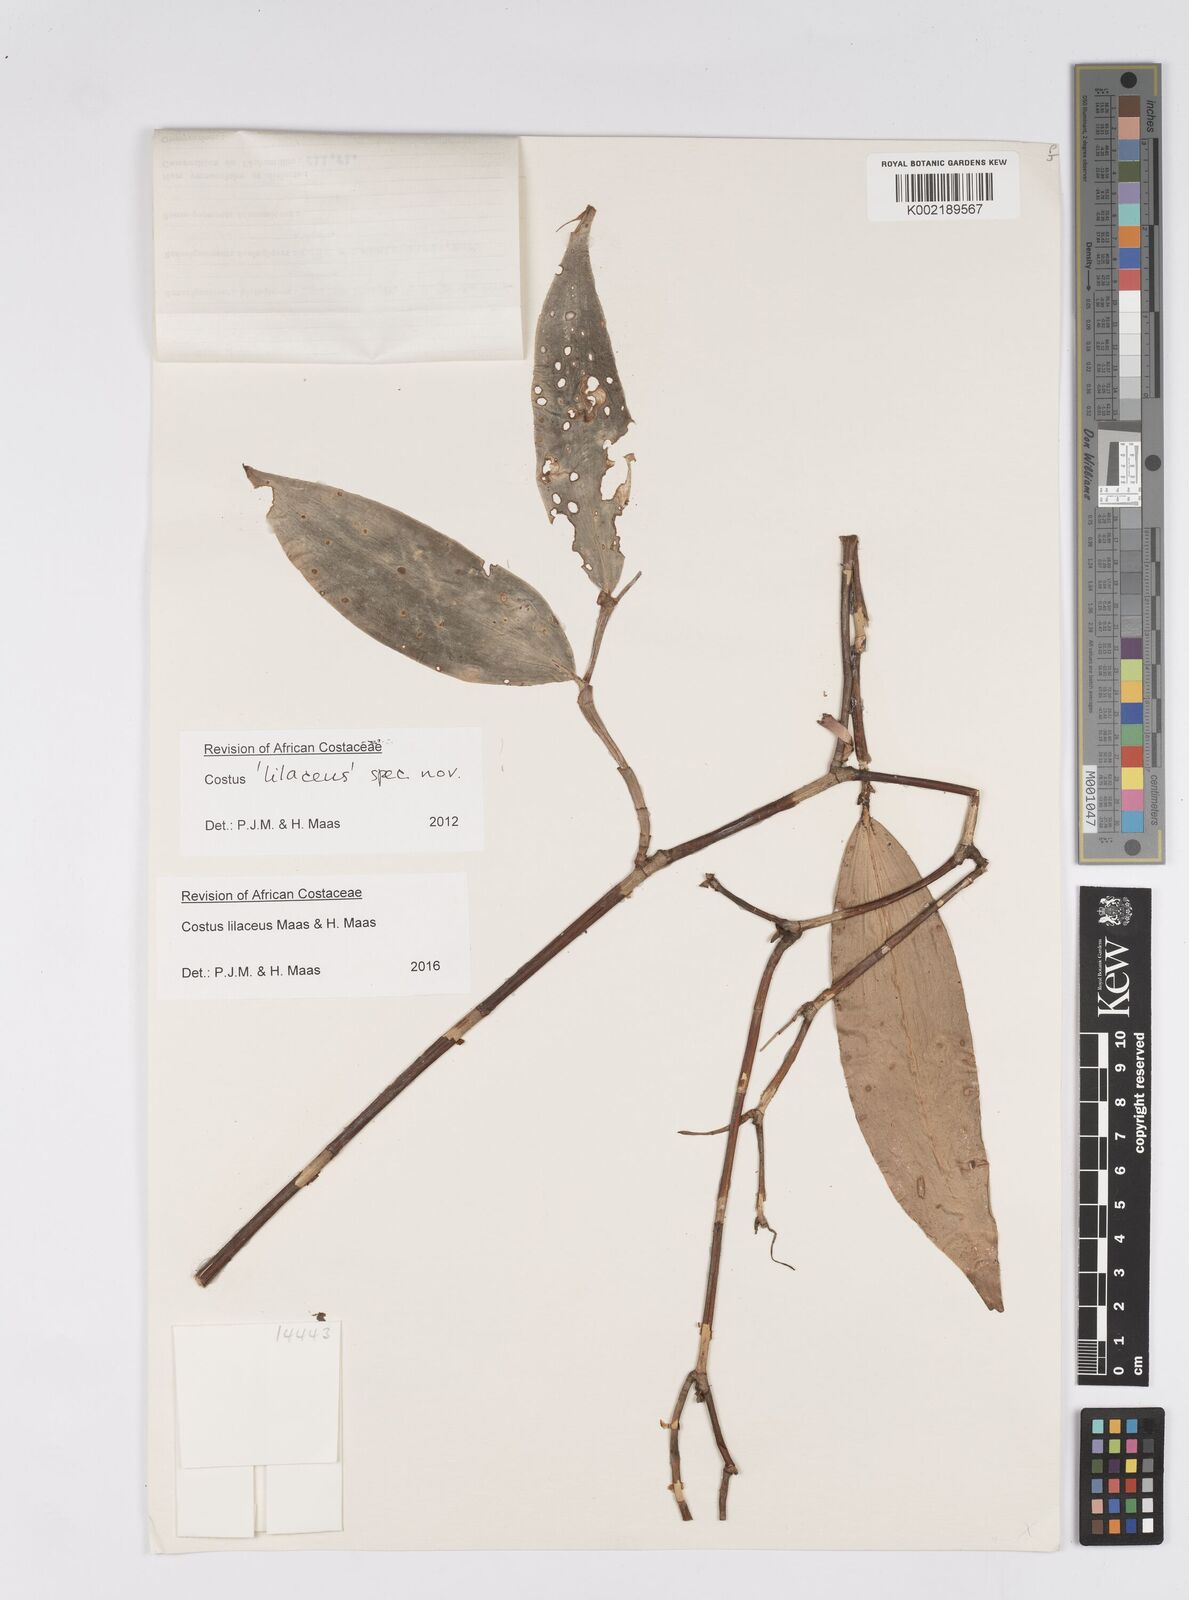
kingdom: Plantae
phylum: Tracheophyta
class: Liliopsida
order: Zingiberales
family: Costaceae
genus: Costus
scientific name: Costus lilaceus
